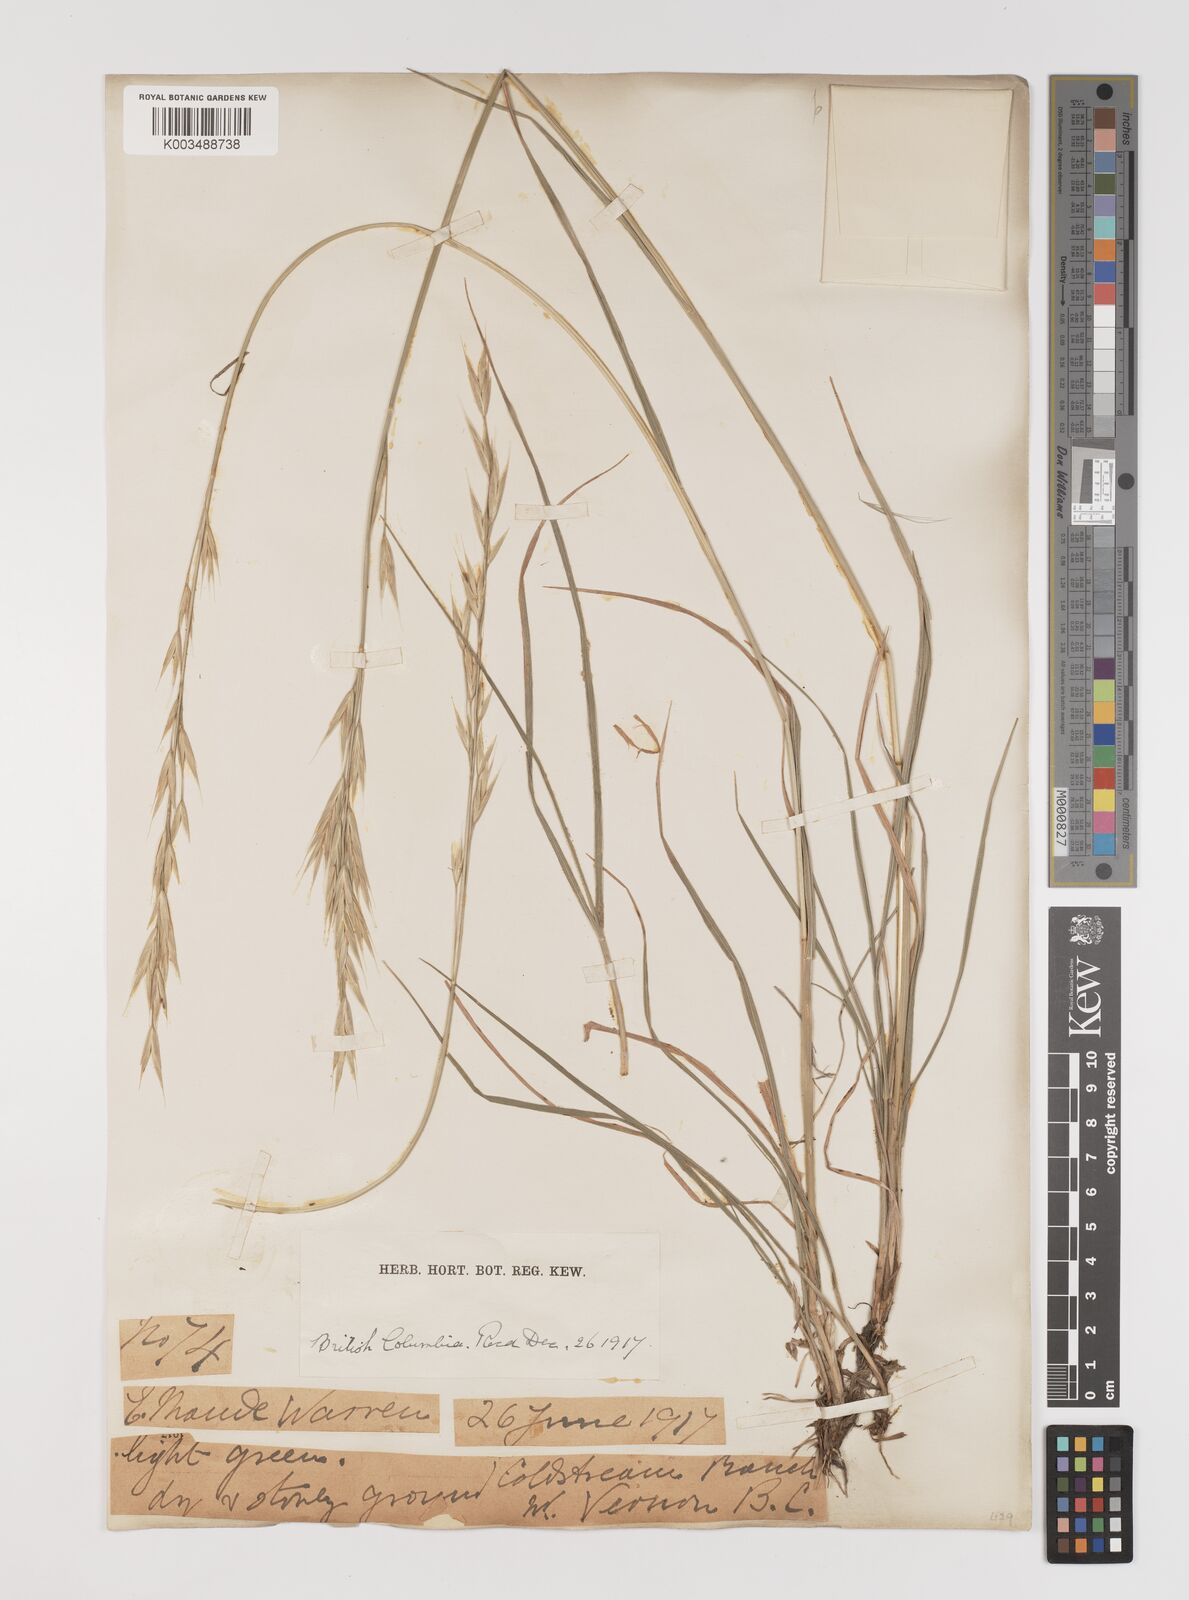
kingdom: Plantae
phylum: Tracheophyta
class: Liliopsida
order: Poales
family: Poaceae
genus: Bromus
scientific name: Bromus
